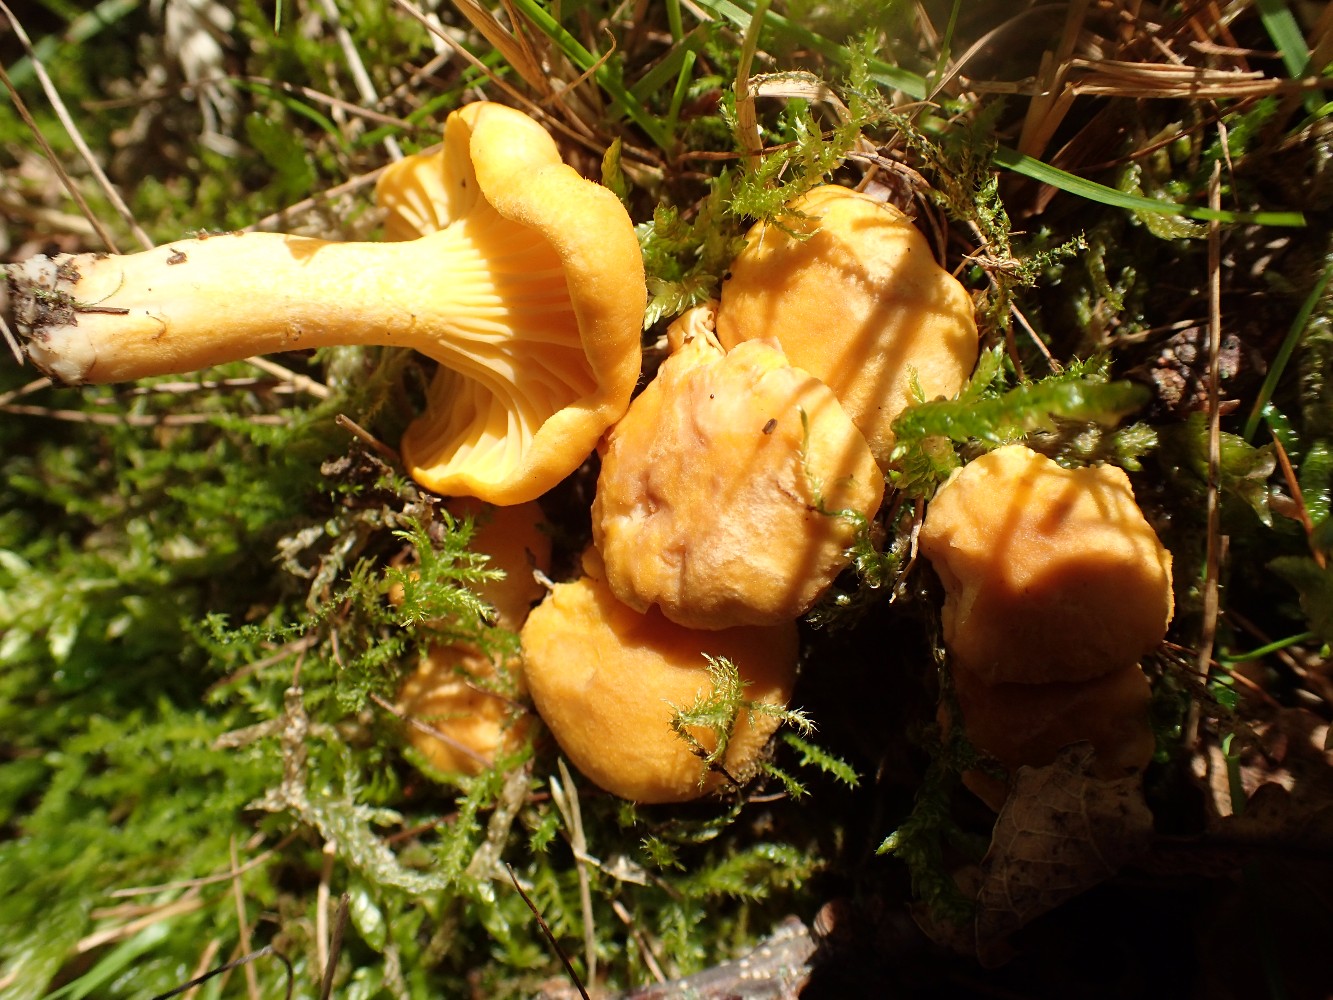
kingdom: Fungi
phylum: Basidiomycota
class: Agaricomycetes
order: Cantharellales
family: Hydnaceae
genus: Cantharellus
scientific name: Cantharellus cibarius
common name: almindelig kantarel
